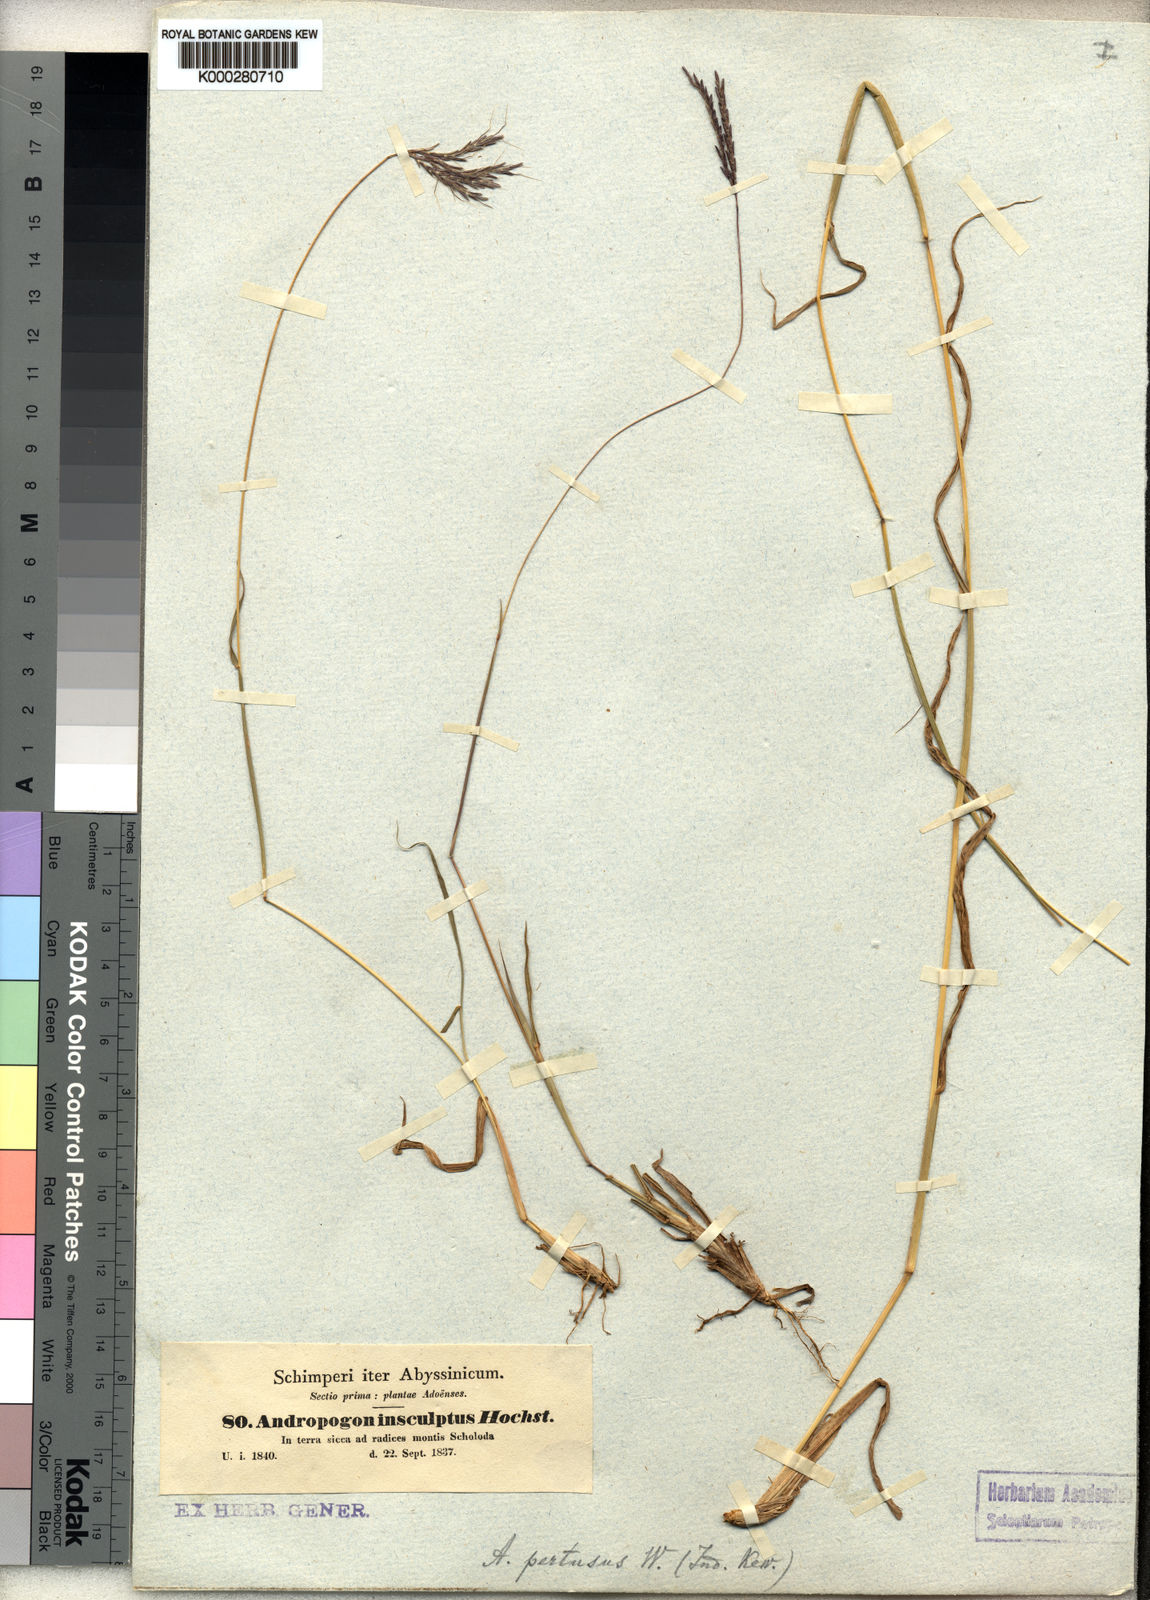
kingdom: Plantae
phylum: Tracheophyta
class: Liliopsida
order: Poales
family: Poaceae
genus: Bothriochloa
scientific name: Bothriochloa insculpta
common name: Creeping-bluegrass
